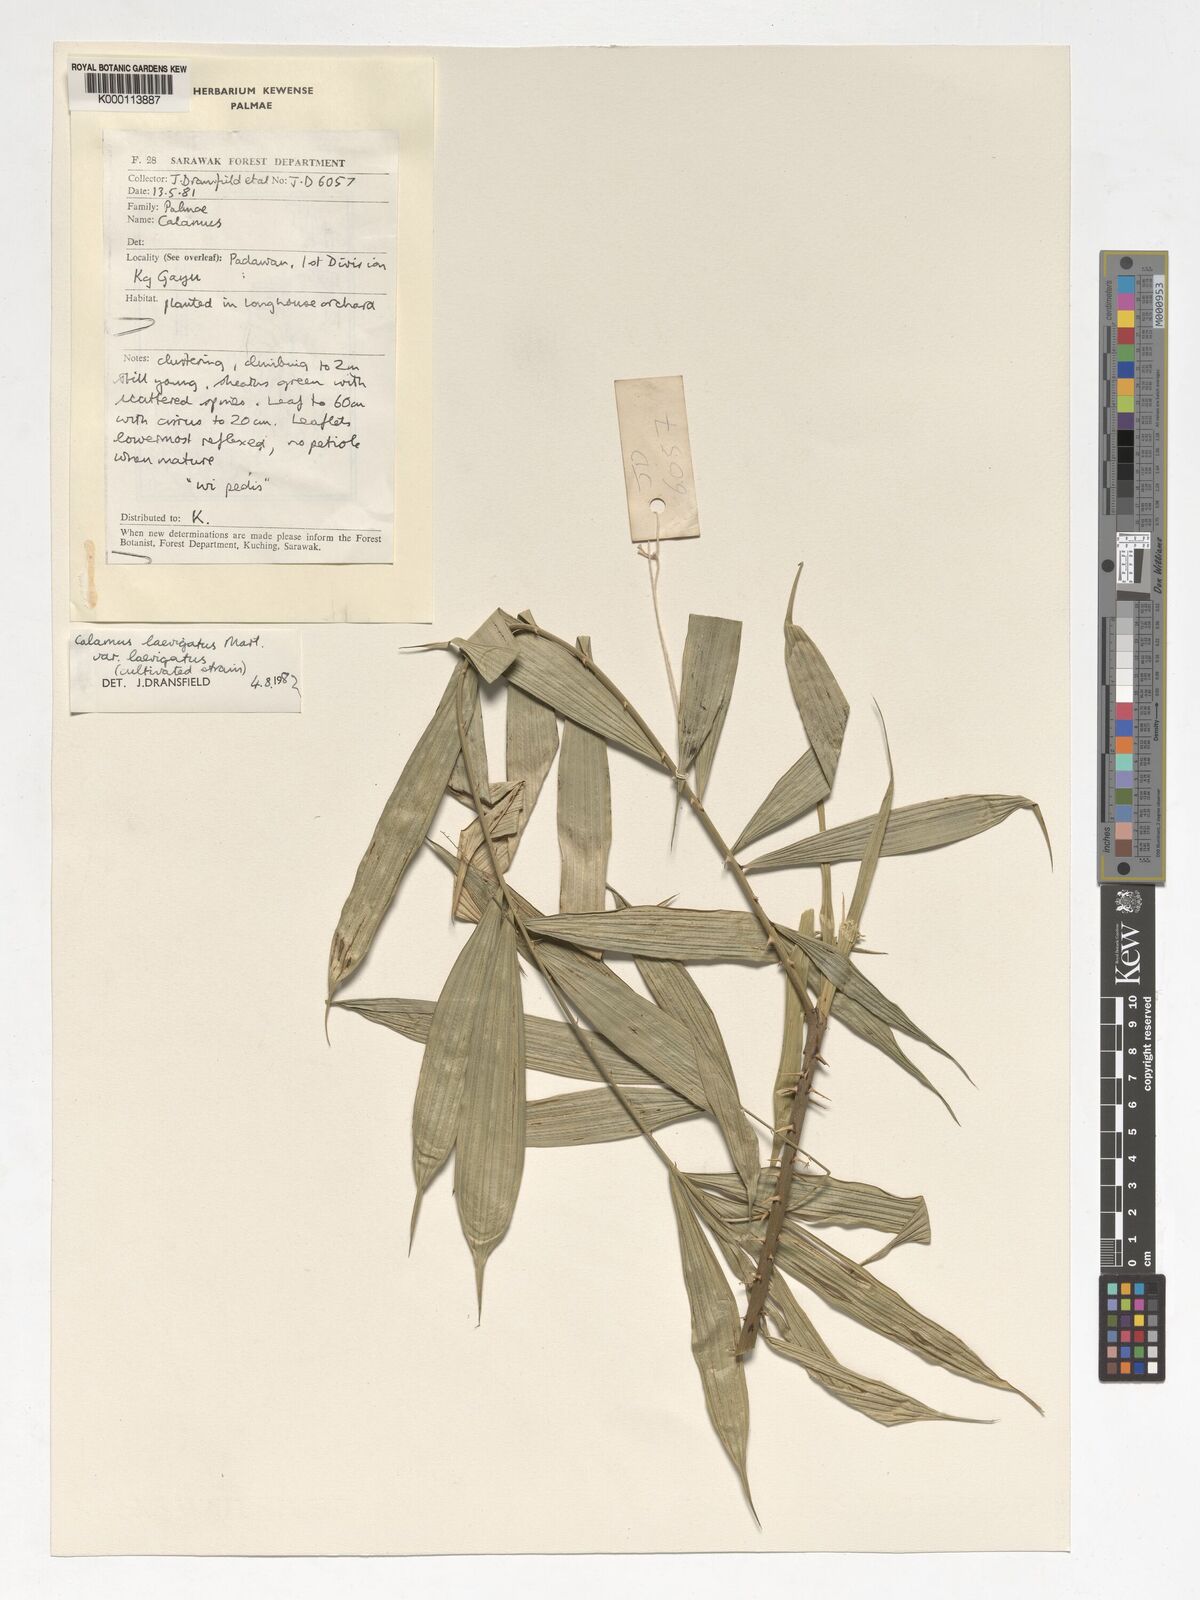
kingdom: Plantae
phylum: Tracheophyta
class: Liliopsida
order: Arecales
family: Arecaceae
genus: Calamus
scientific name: Calamus
